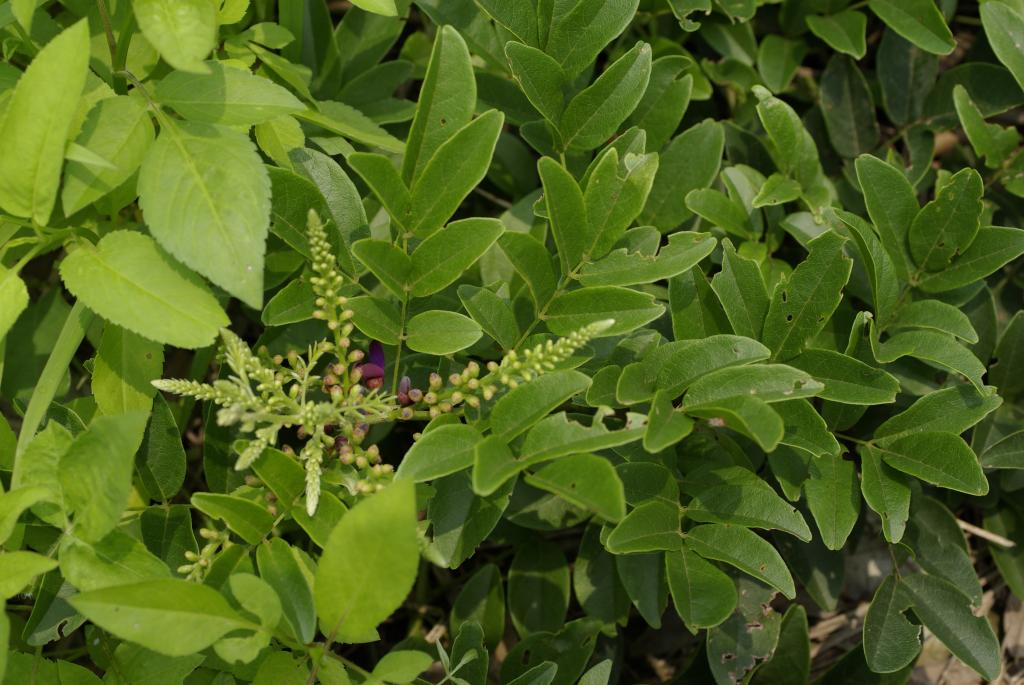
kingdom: Plantae
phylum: Tracheophyta
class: Magnoliopsida
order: Fabales
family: Fabaceae
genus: Wisteriopsis
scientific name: Wisteriopsis reticulata
